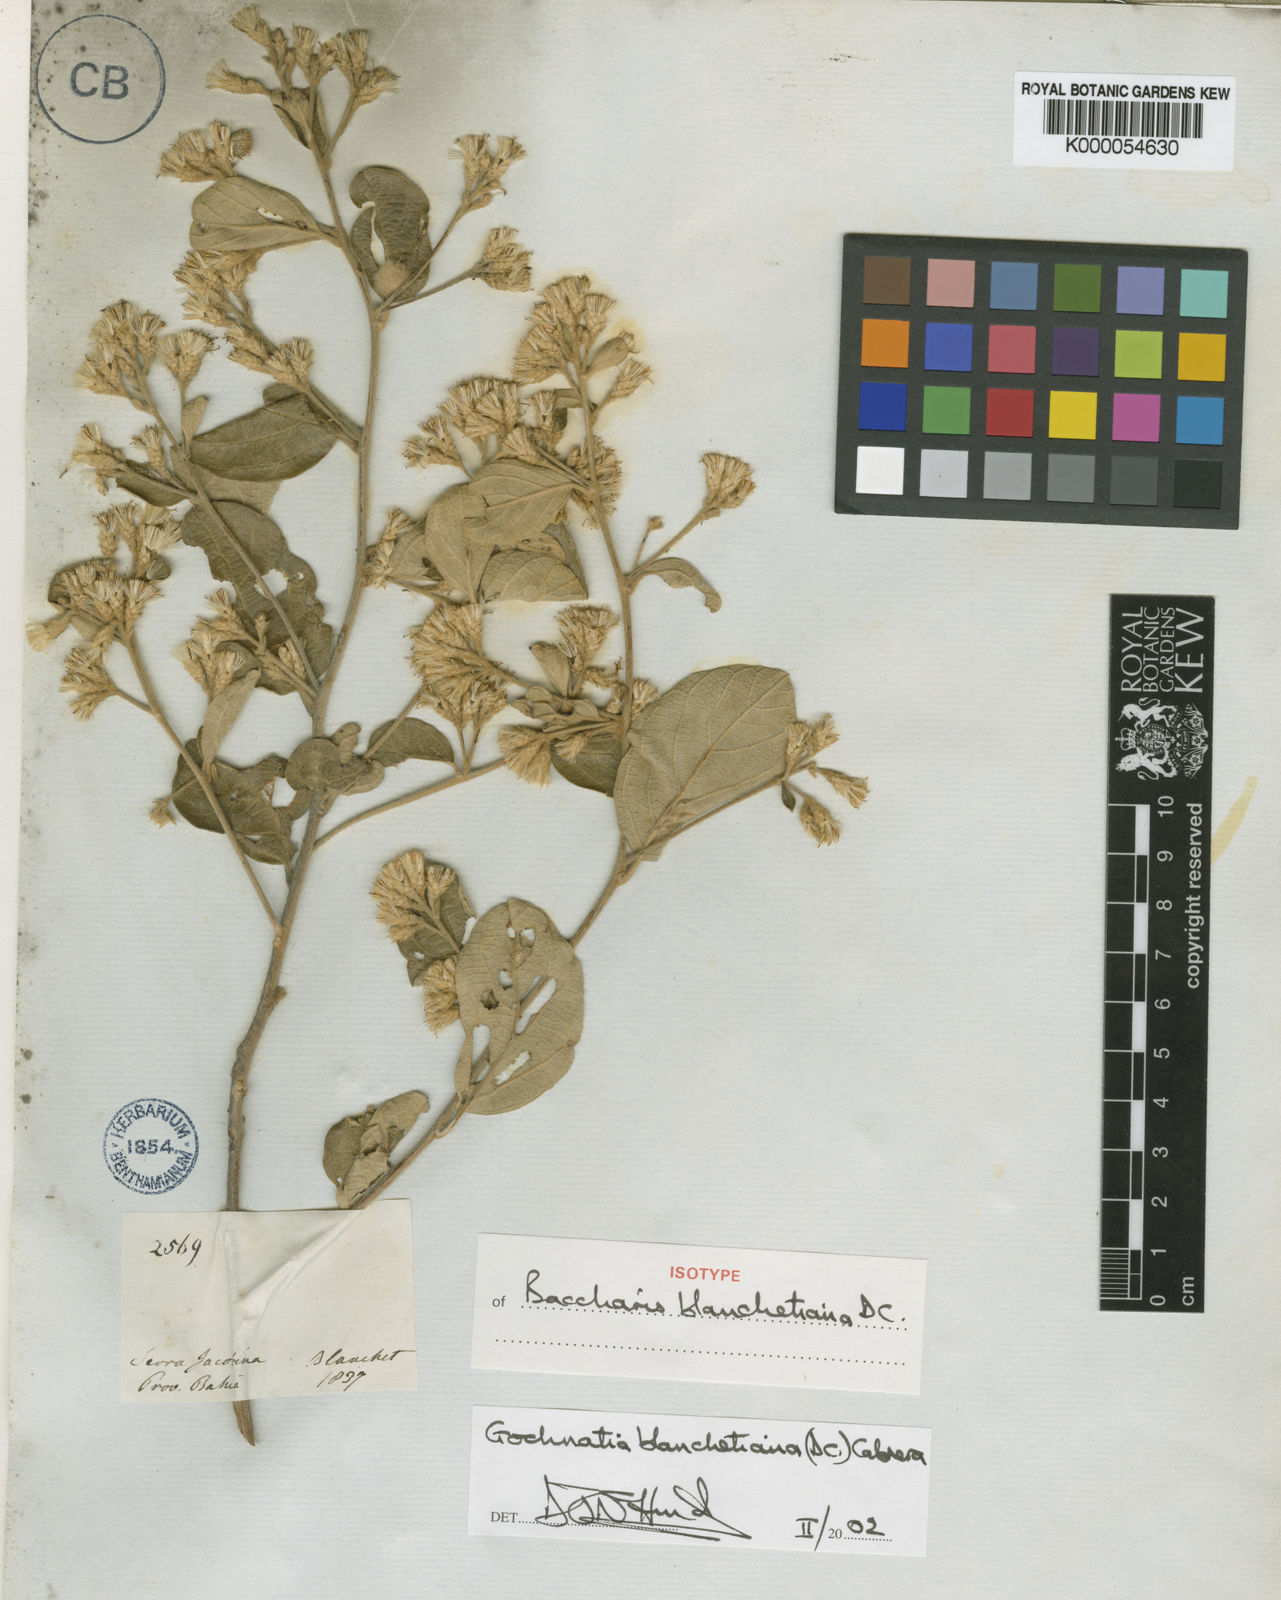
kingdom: Plantae
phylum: Tracheophyta
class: Magnoliopsida
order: Asterales
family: Asteraceae
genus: Moquiniastrum
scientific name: Moquiniastrum blanchetianum
